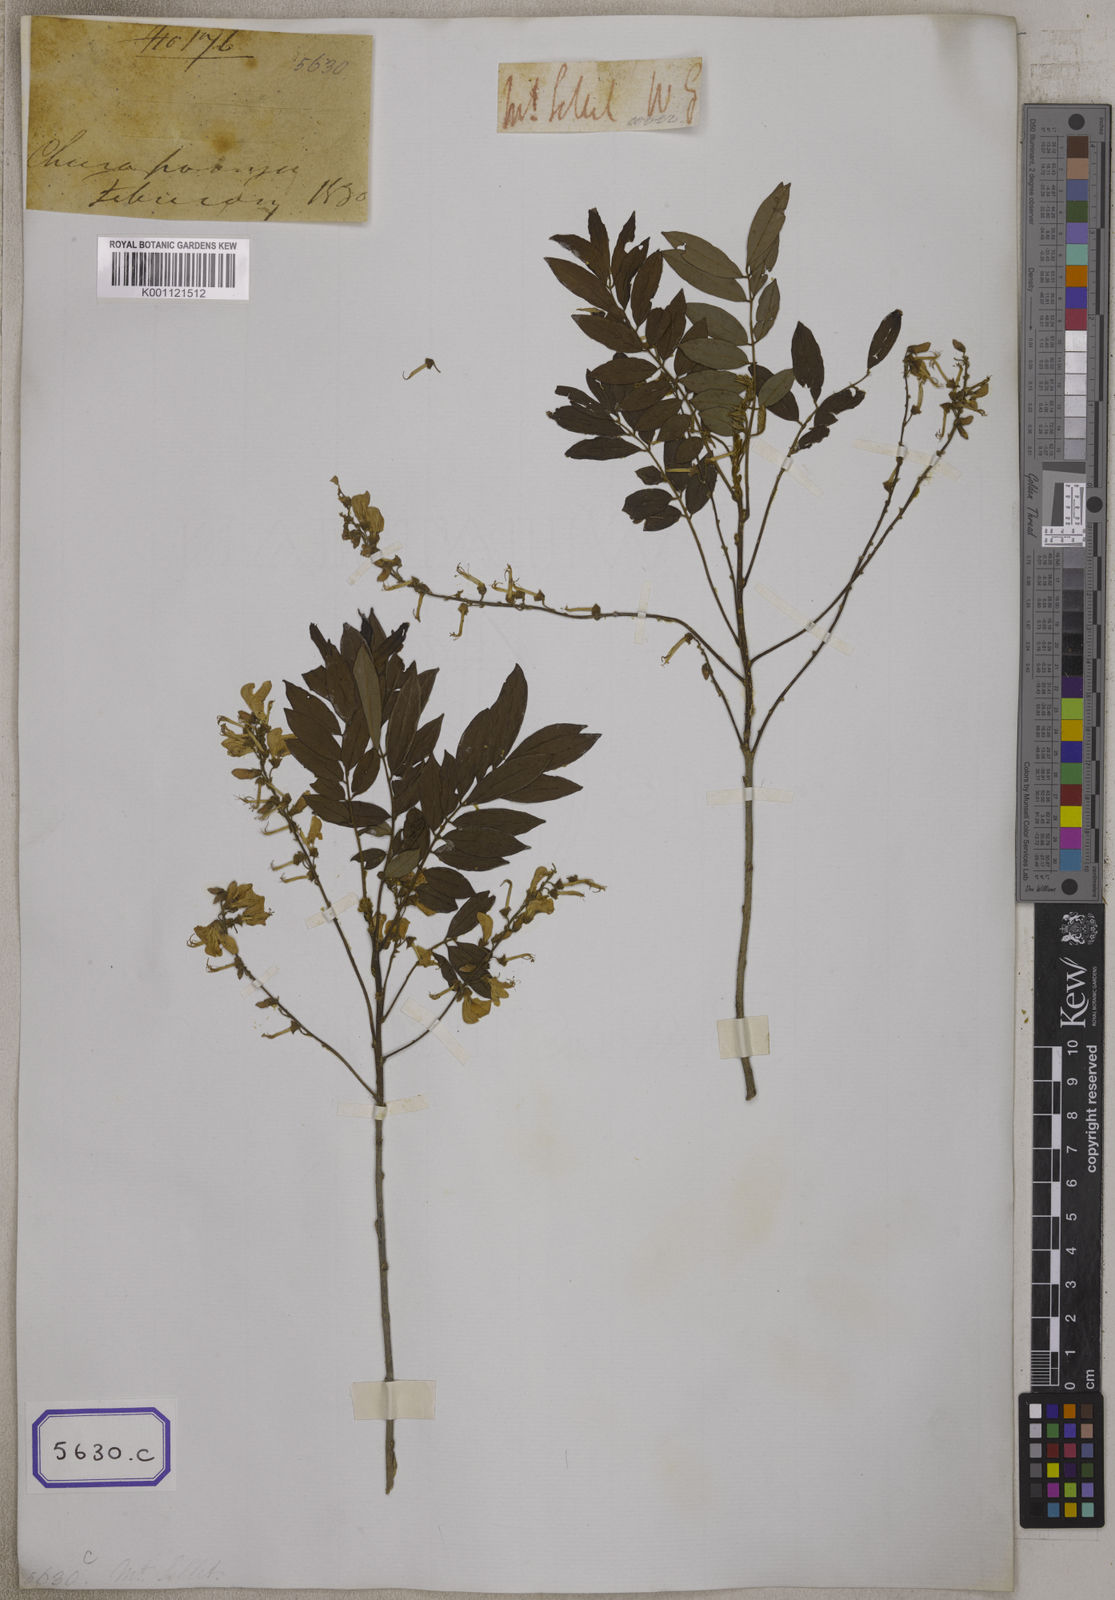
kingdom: Plantae
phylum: Tracheophyta
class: Magnoliopsida
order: Fabales
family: Fabaceae
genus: Millettia
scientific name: Millettia pulchra
